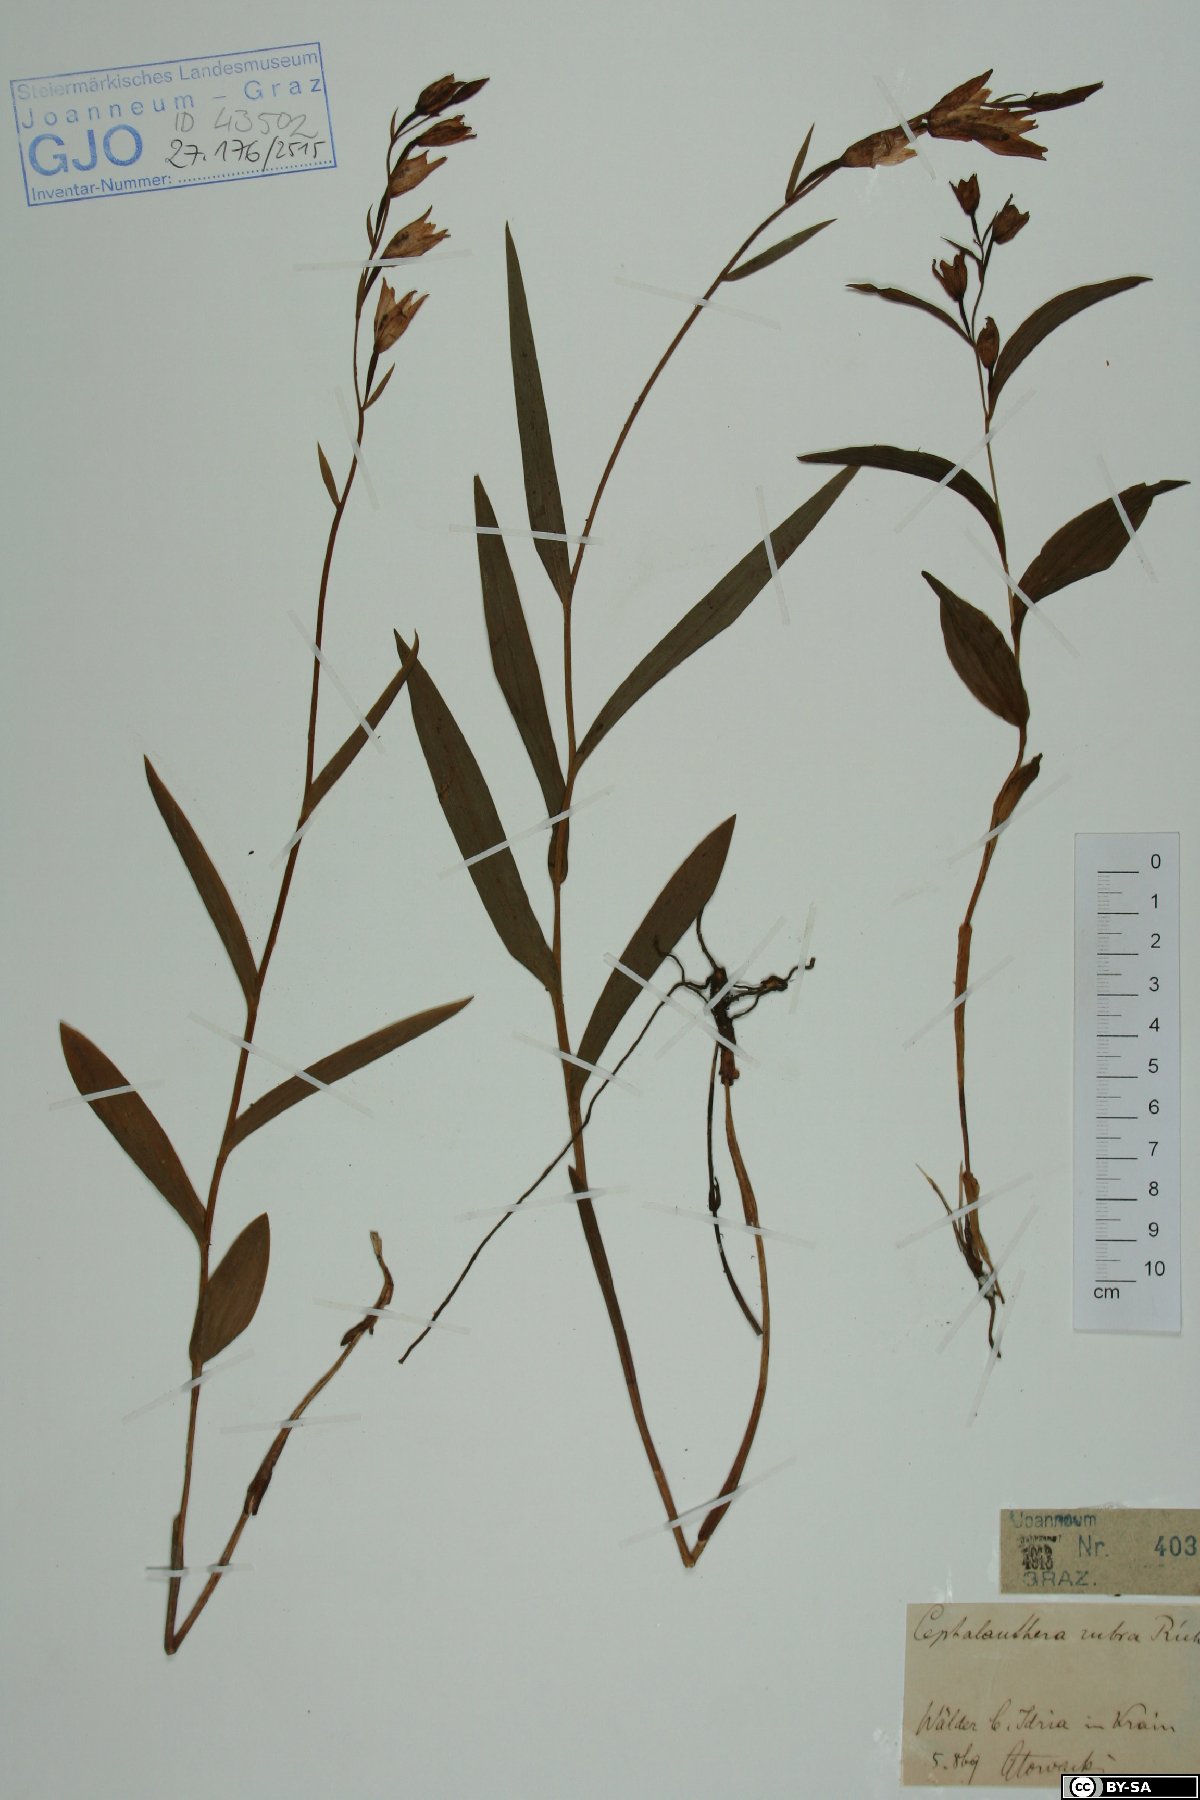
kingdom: Plantae
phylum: Tracheophyta
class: Liliopsida
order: Asparagales
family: Orchidaceae
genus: Cephalanthera
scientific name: Cephalanthera rubra
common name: Red helleborine
